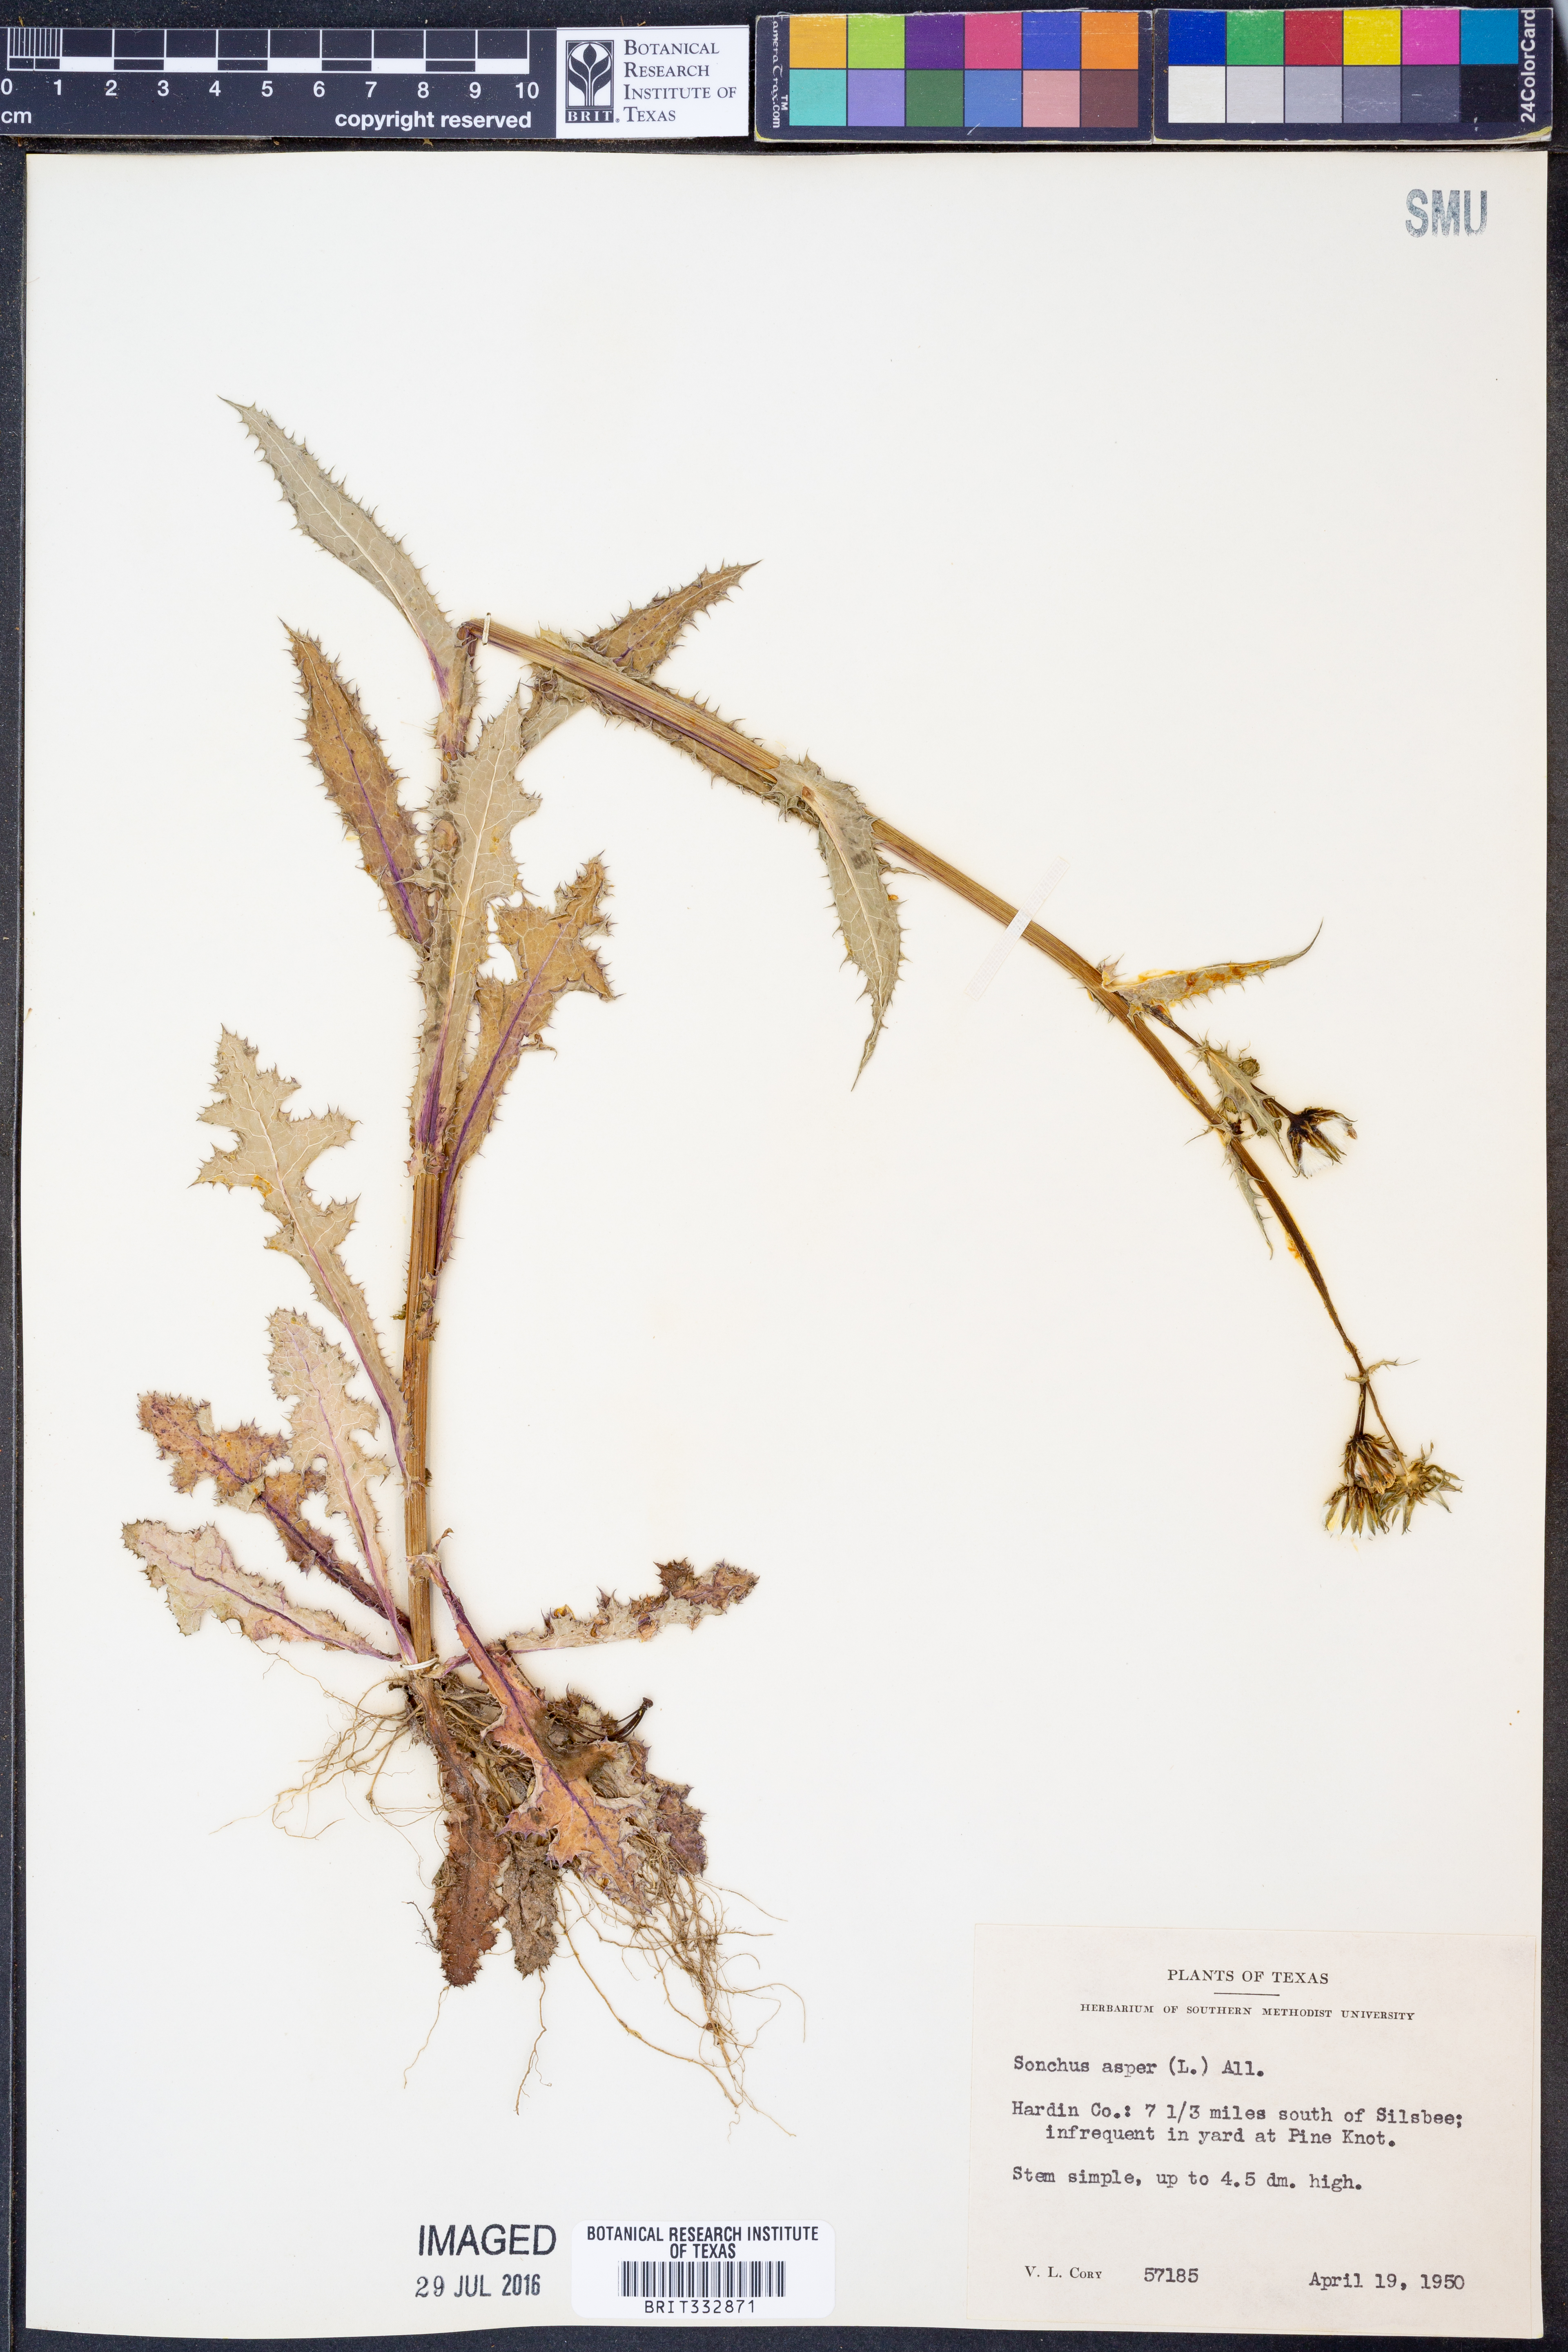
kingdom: Plantae
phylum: Tracheophyta
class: Magnoliopsida
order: Asterales
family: Asteraceae
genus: Sonchus
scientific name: Sonchus asper
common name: Prickly sow-thistle
